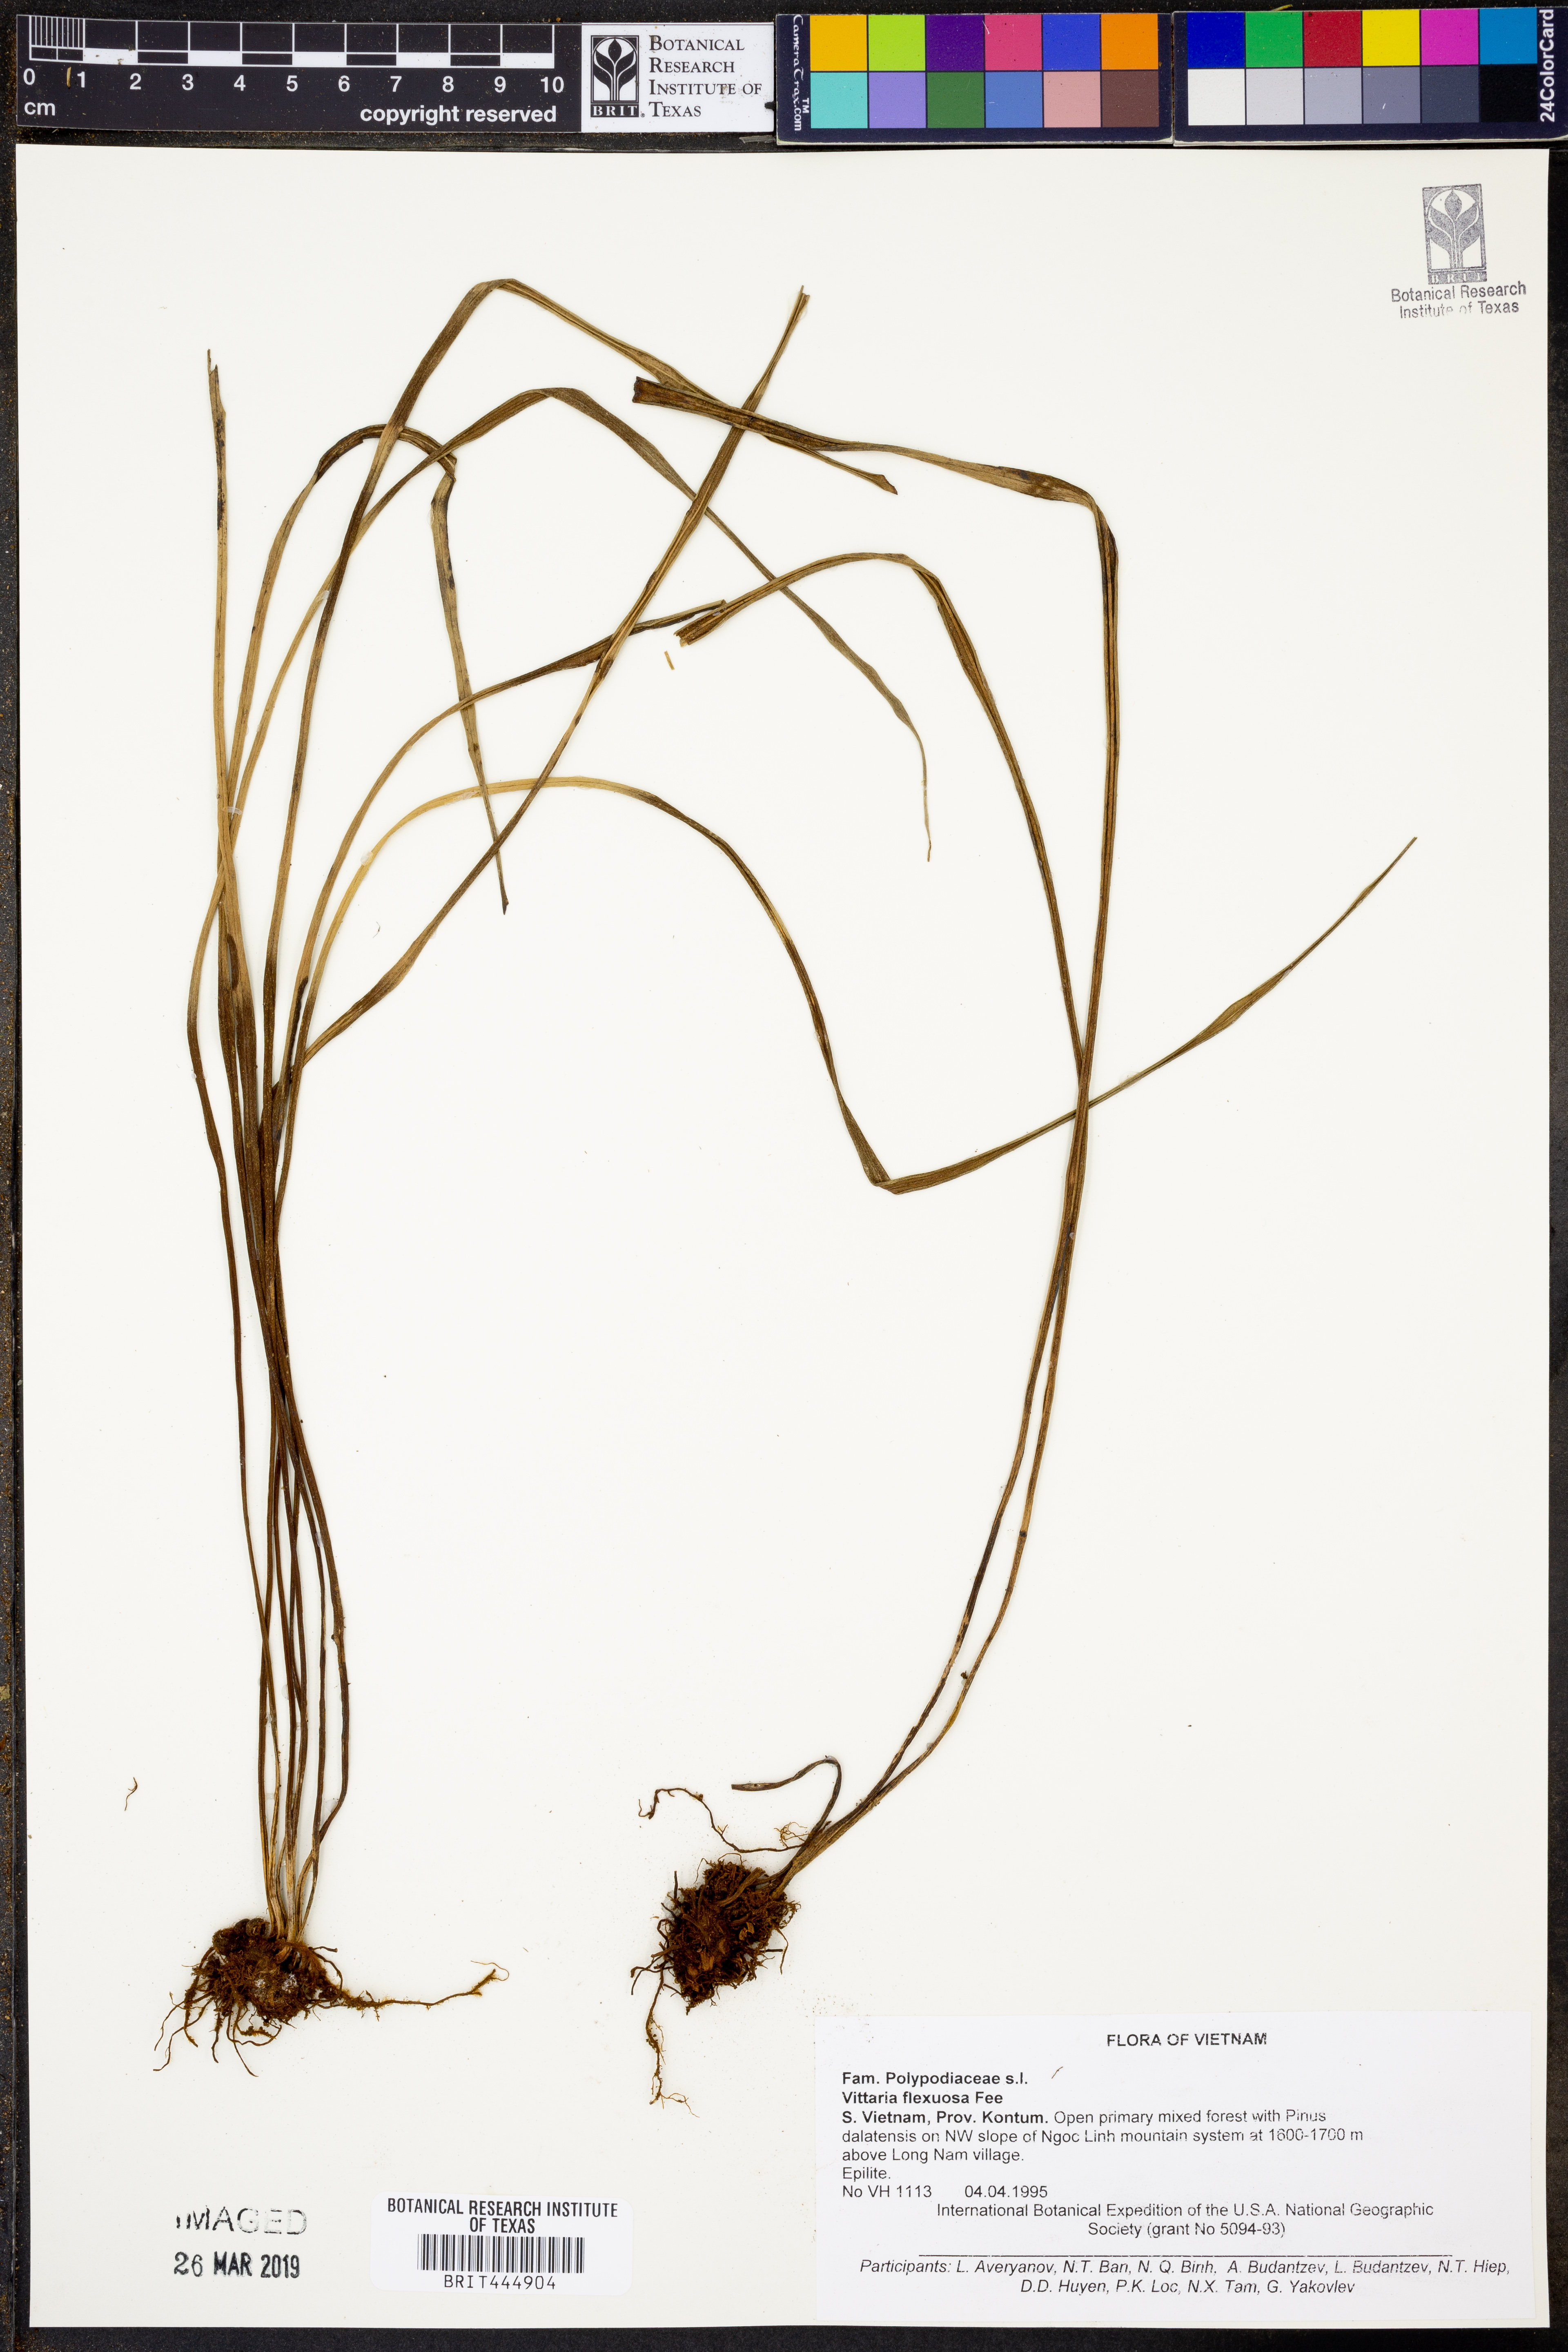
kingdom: Plantae
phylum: Tracheophyta
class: Polypodiopsida
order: Polypodiales
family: Pteridaceae
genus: Haplopteris
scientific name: Haplopteris flexuosa
